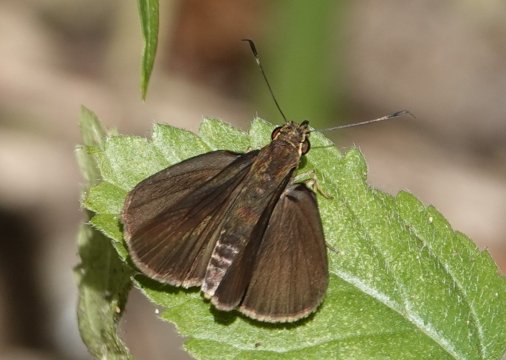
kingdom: Animalia
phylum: Arthropoda
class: Insecta
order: Lepidoptera
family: Hesperiidae
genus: Nastra
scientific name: Nastra insignis
